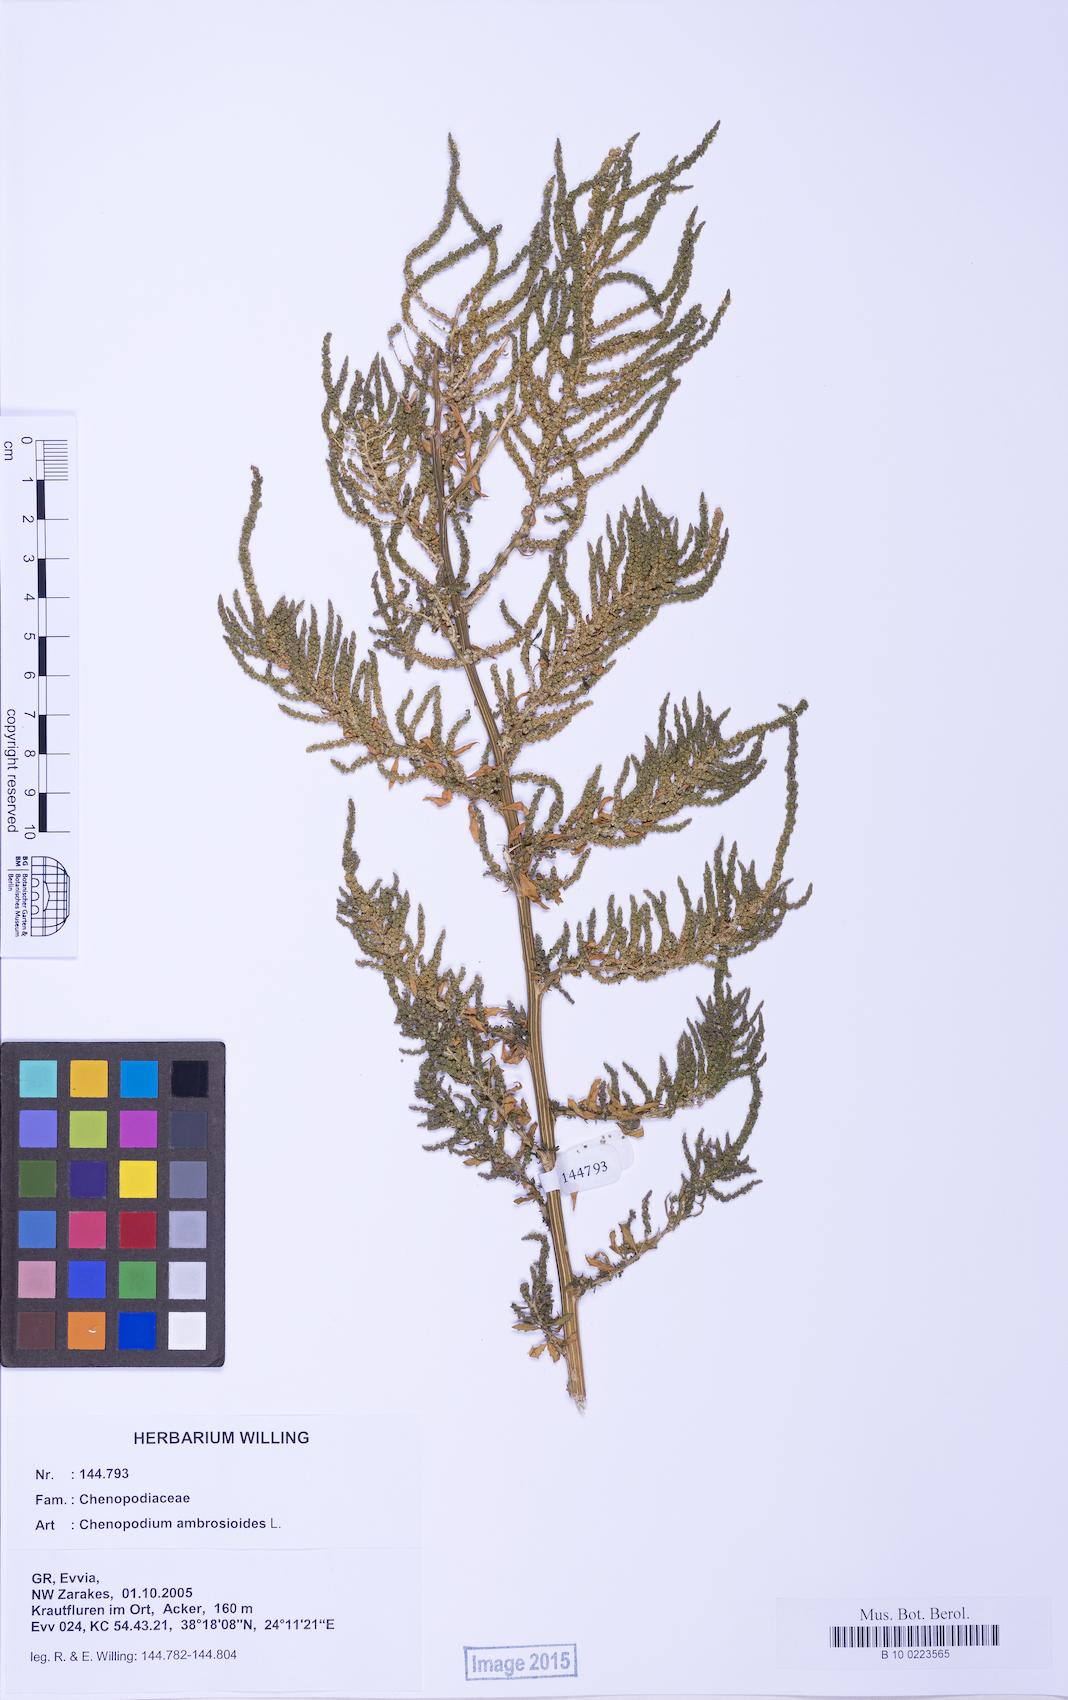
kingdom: Plantae
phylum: Tracheophyta
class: Magnoliopsida
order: Caryophyllales
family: Amaranthaceae
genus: Dysphania
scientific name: Dysphania ambrosioides
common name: Wormseed
